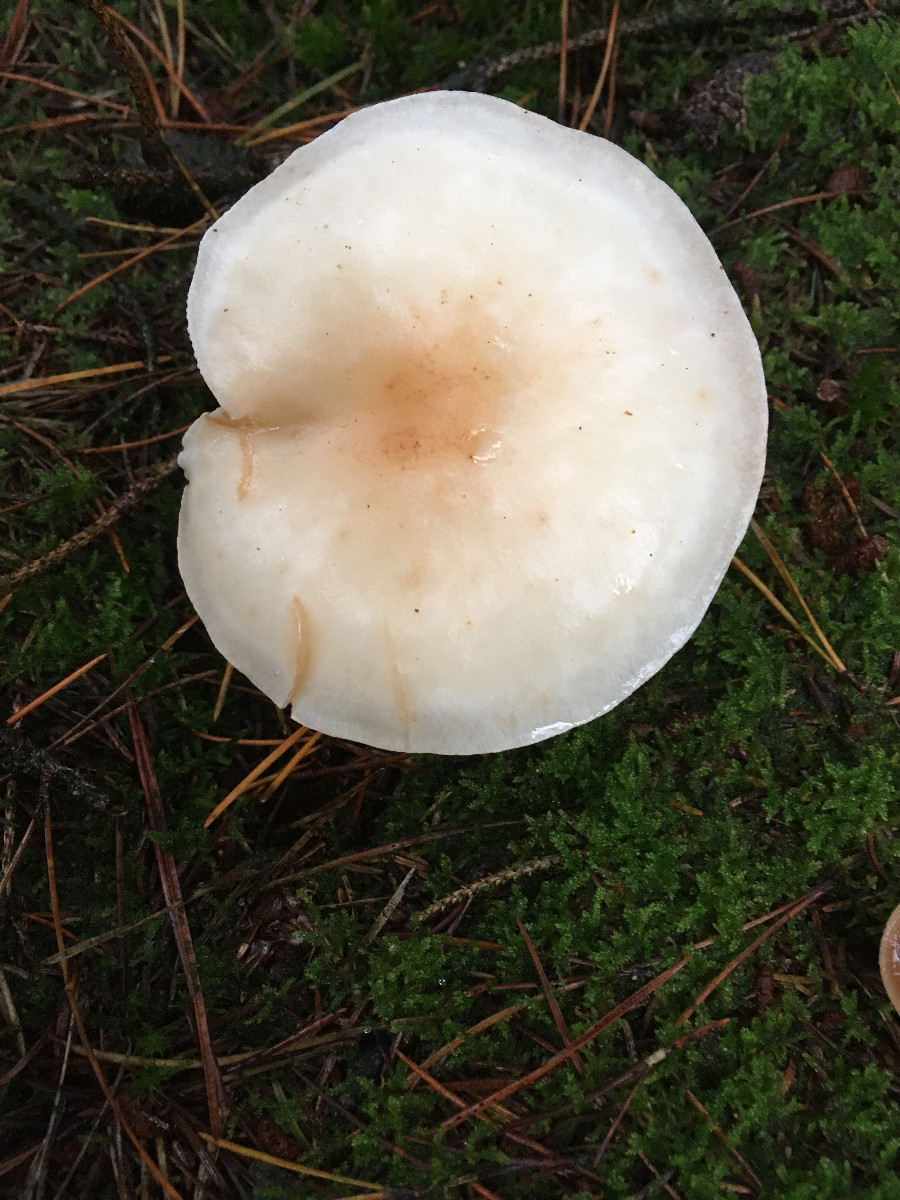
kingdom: Fungi
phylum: Basidiomycota
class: Agaricomycetes
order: Agaricales
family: Omphalotaceae
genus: Rhodocollybia
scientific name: Rhodocollybia maculata
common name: plettet fladhat
